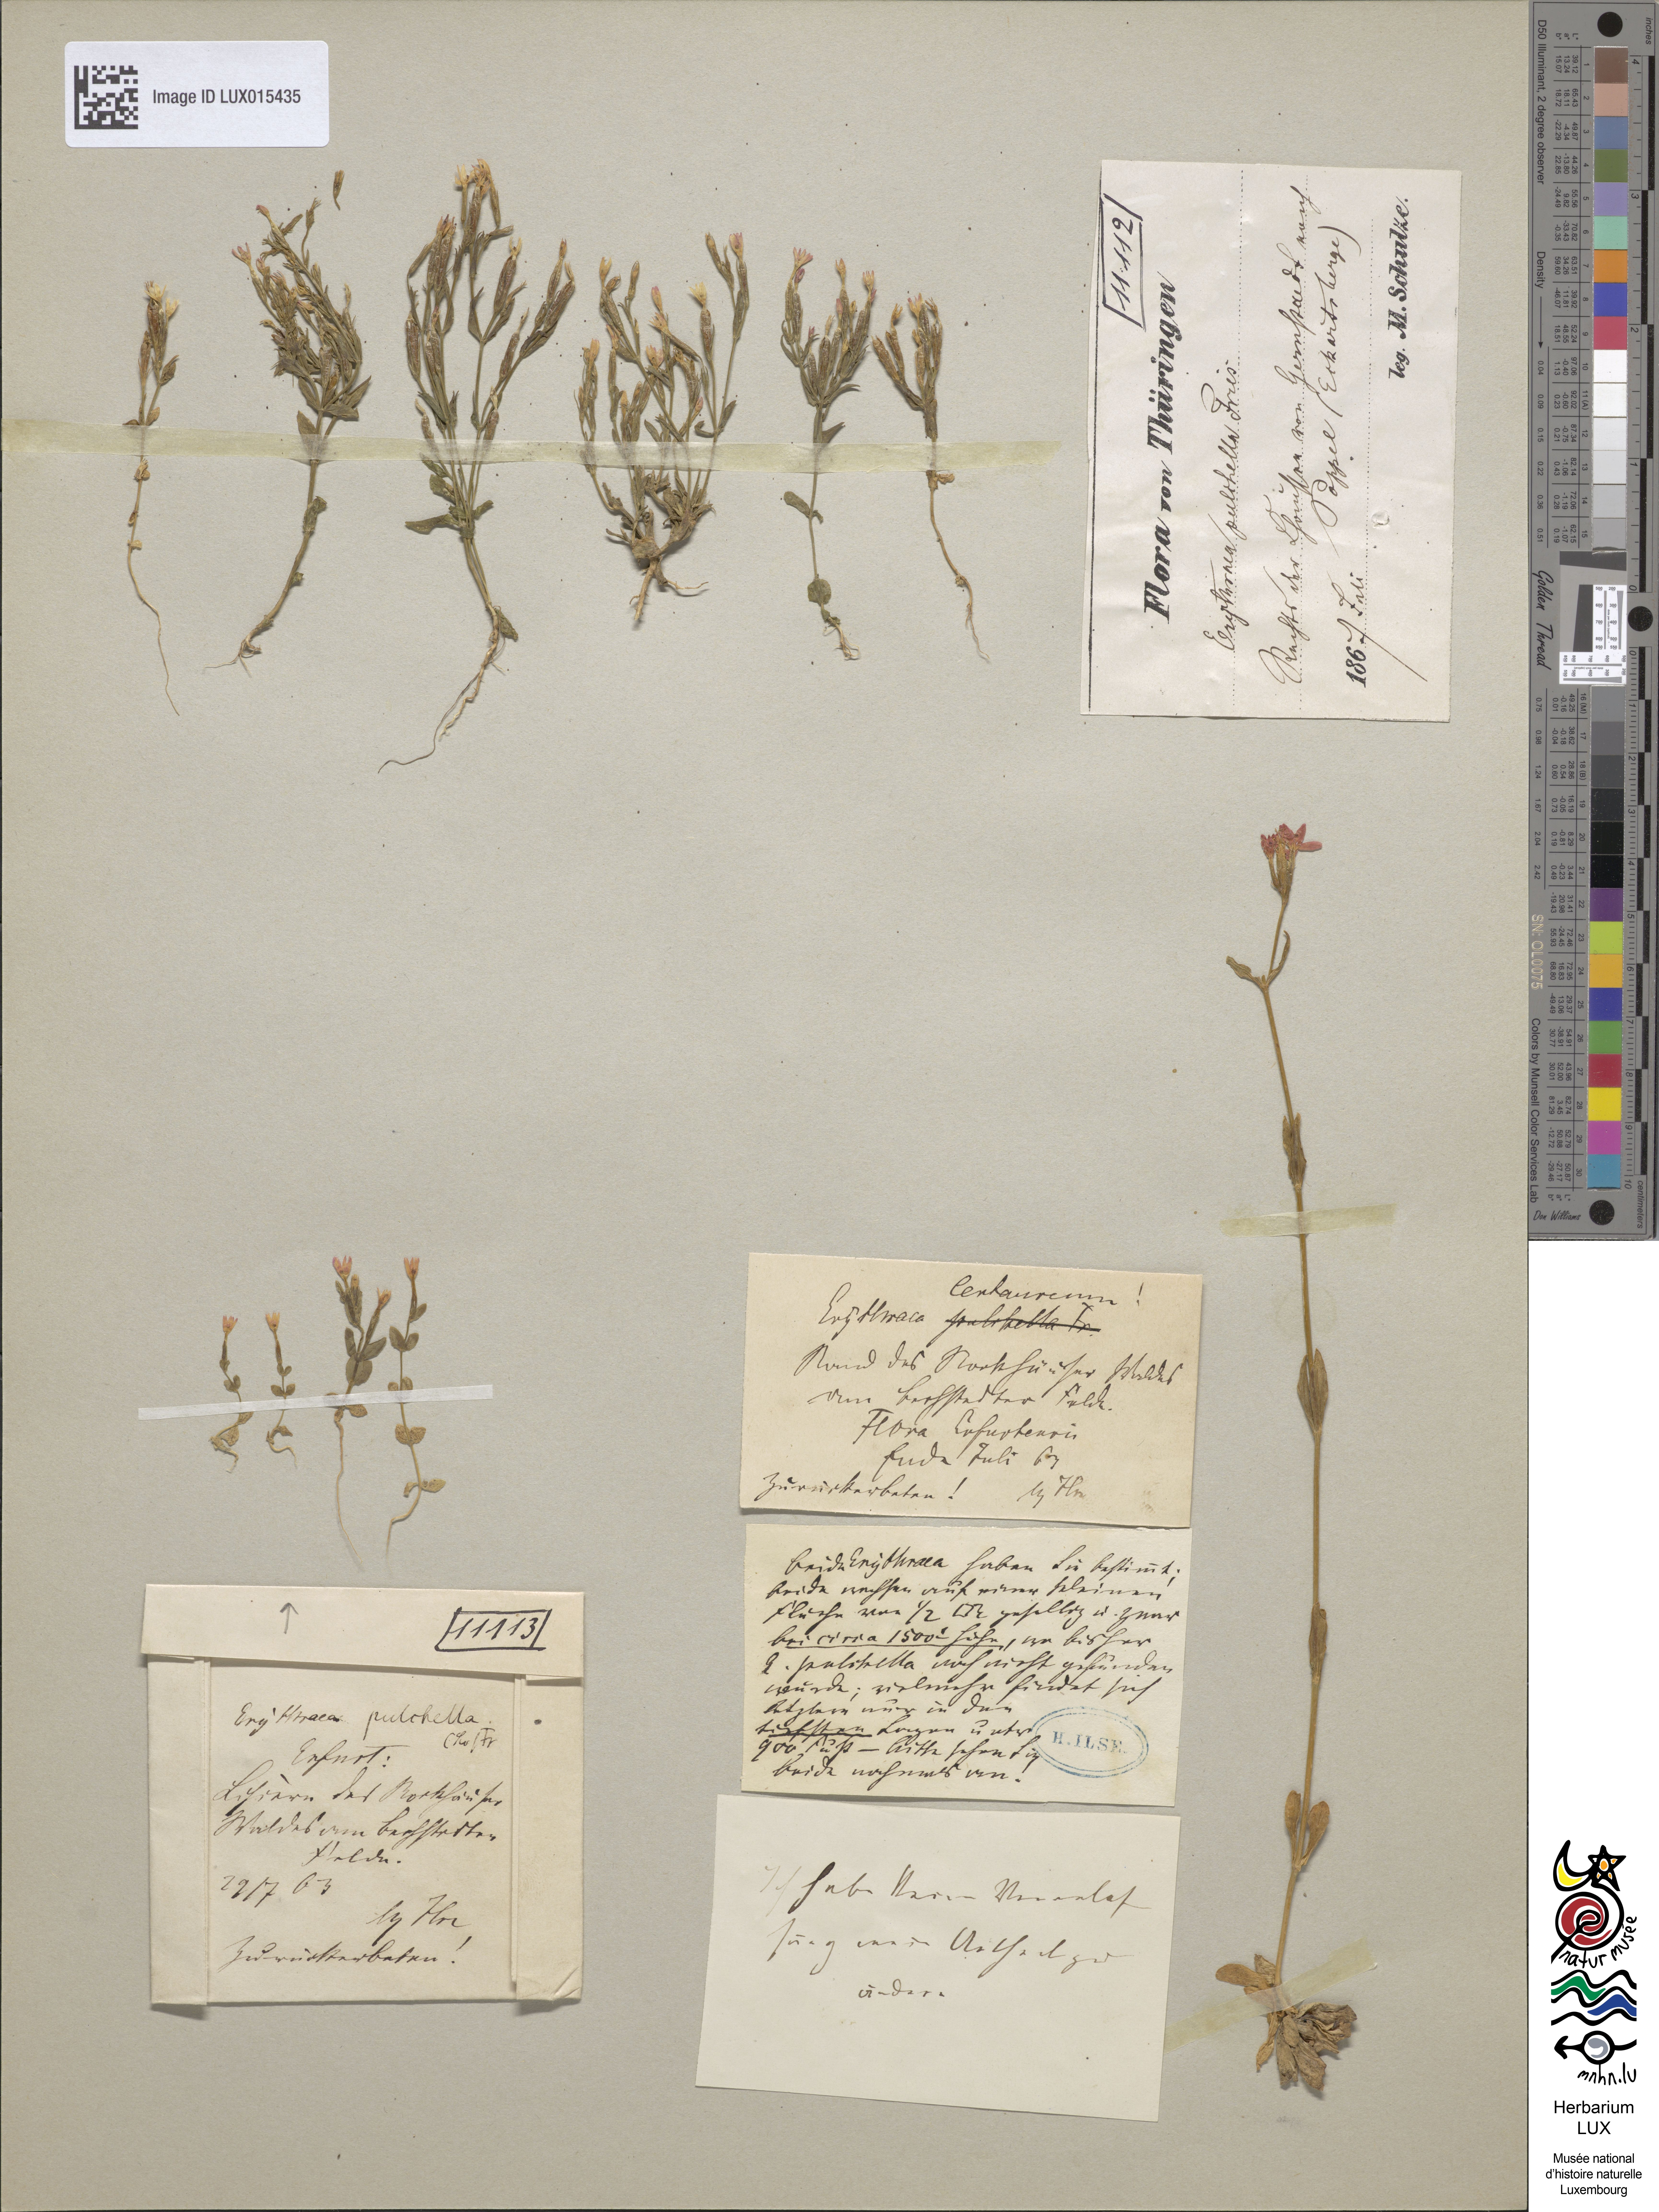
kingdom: Plantae
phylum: Tracheophyta
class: Magnoliopsida
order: Gentianales
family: Gentianaceae
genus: Centaurium
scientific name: Centaurium pulchellum
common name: Lesser centaury
